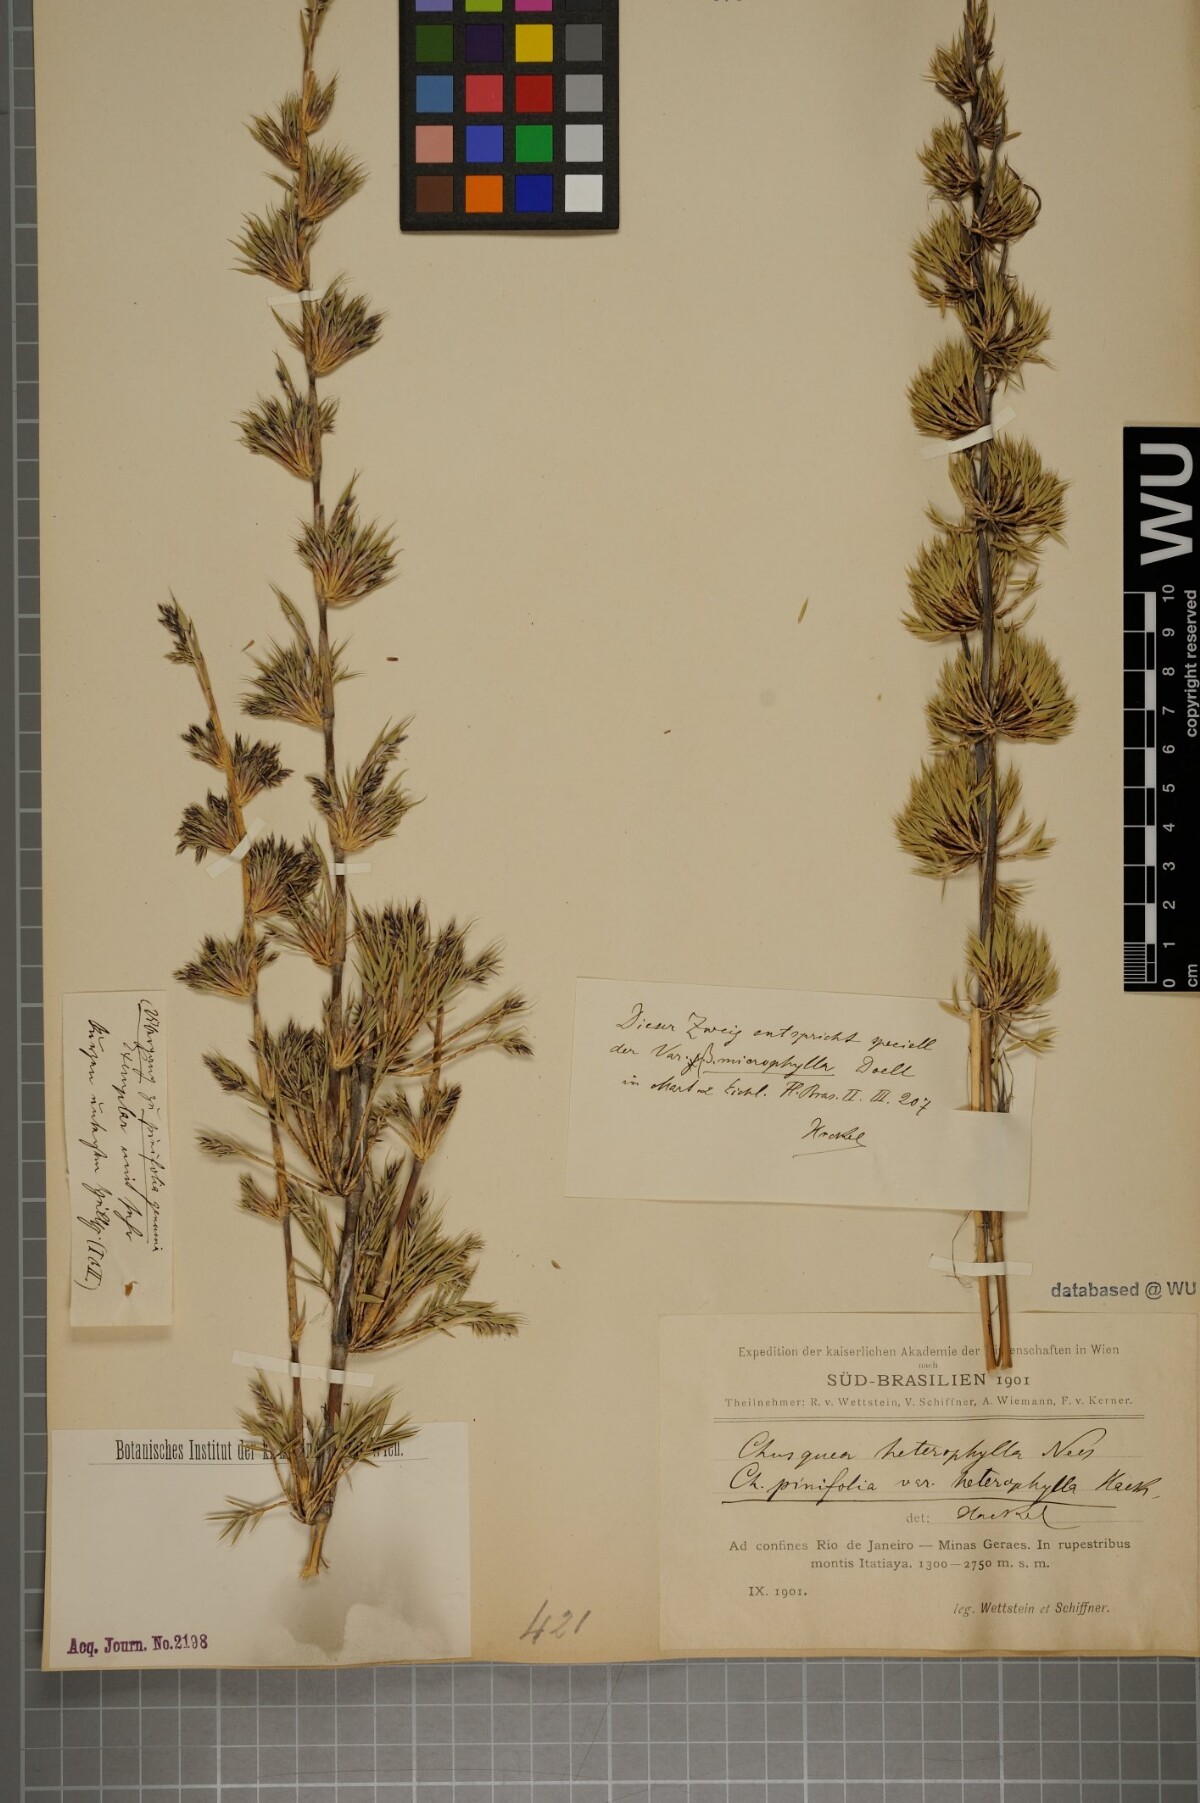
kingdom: Plantae
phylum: Tracheophyta
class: Liliopsida
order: Poales
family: Poaceae
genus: Chusquea
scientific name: Chusquea heterophylla
